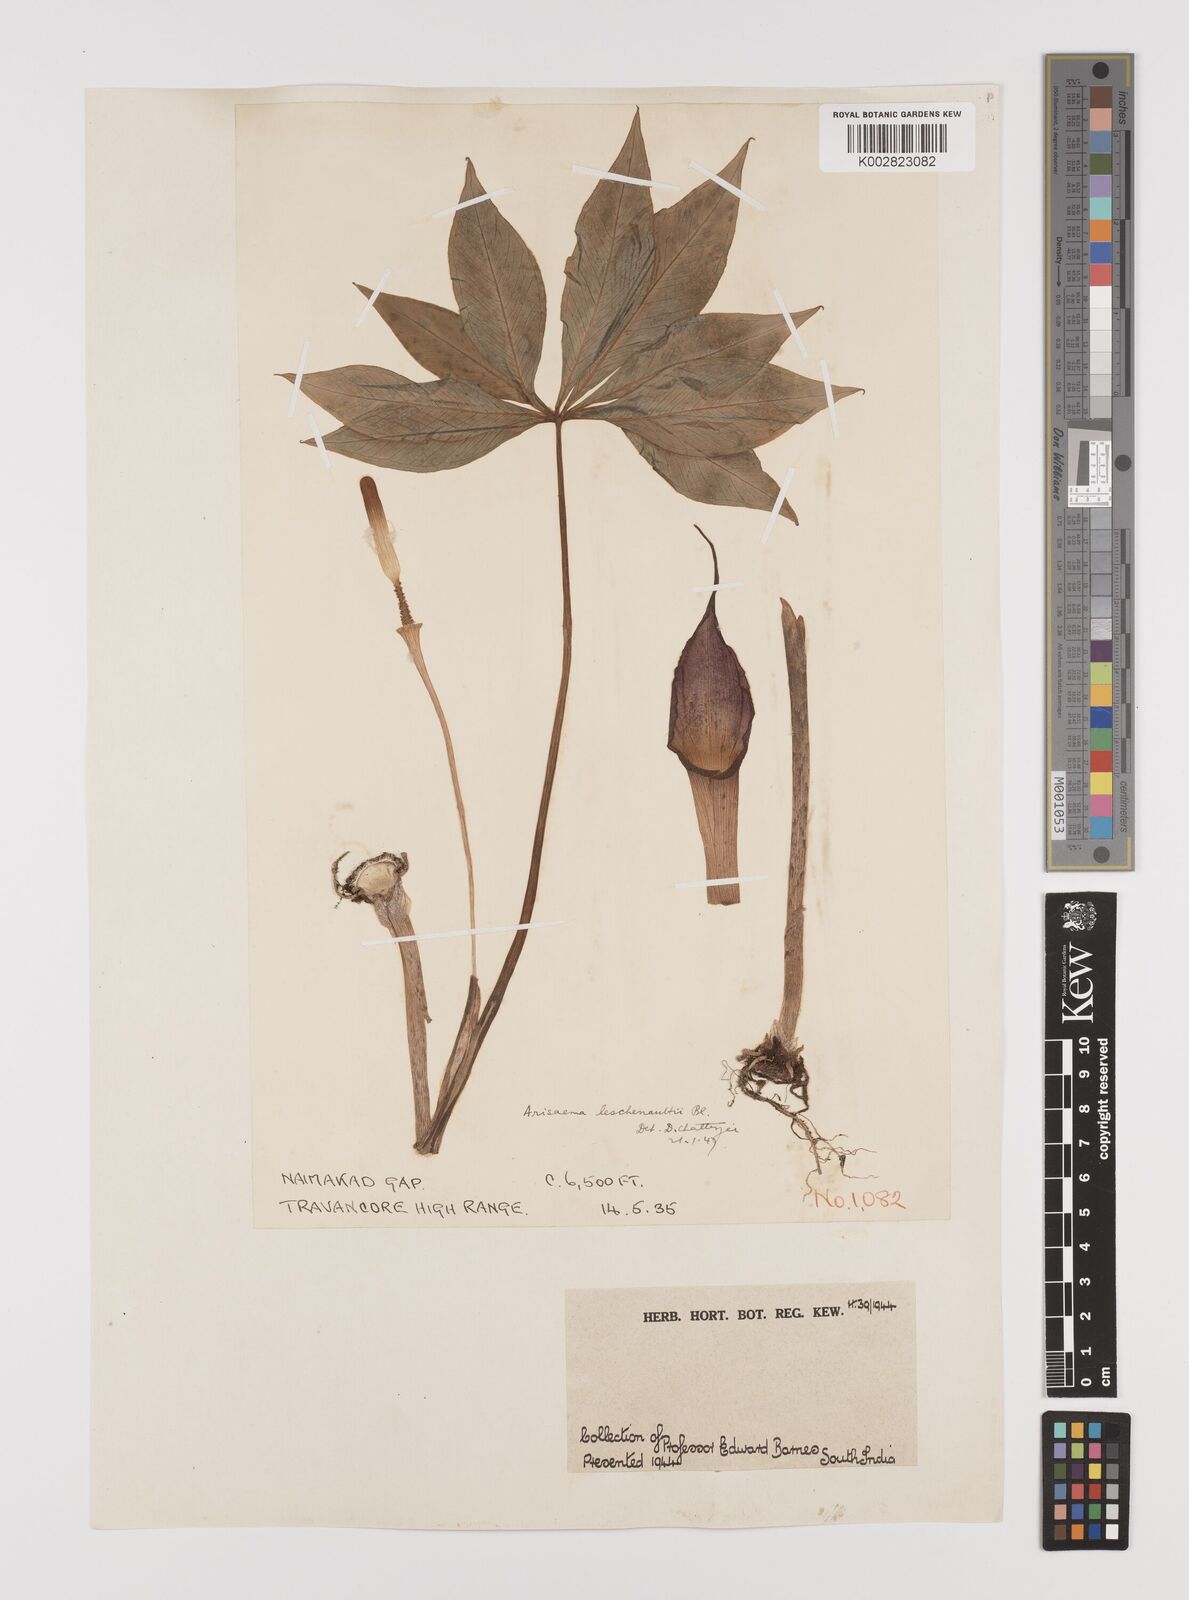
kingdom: Plantae
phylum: Tracheophyta
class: Liliopsida
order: Alismatales
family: Araceae
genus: Arisaema
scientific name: Arisaema leschenaultii
